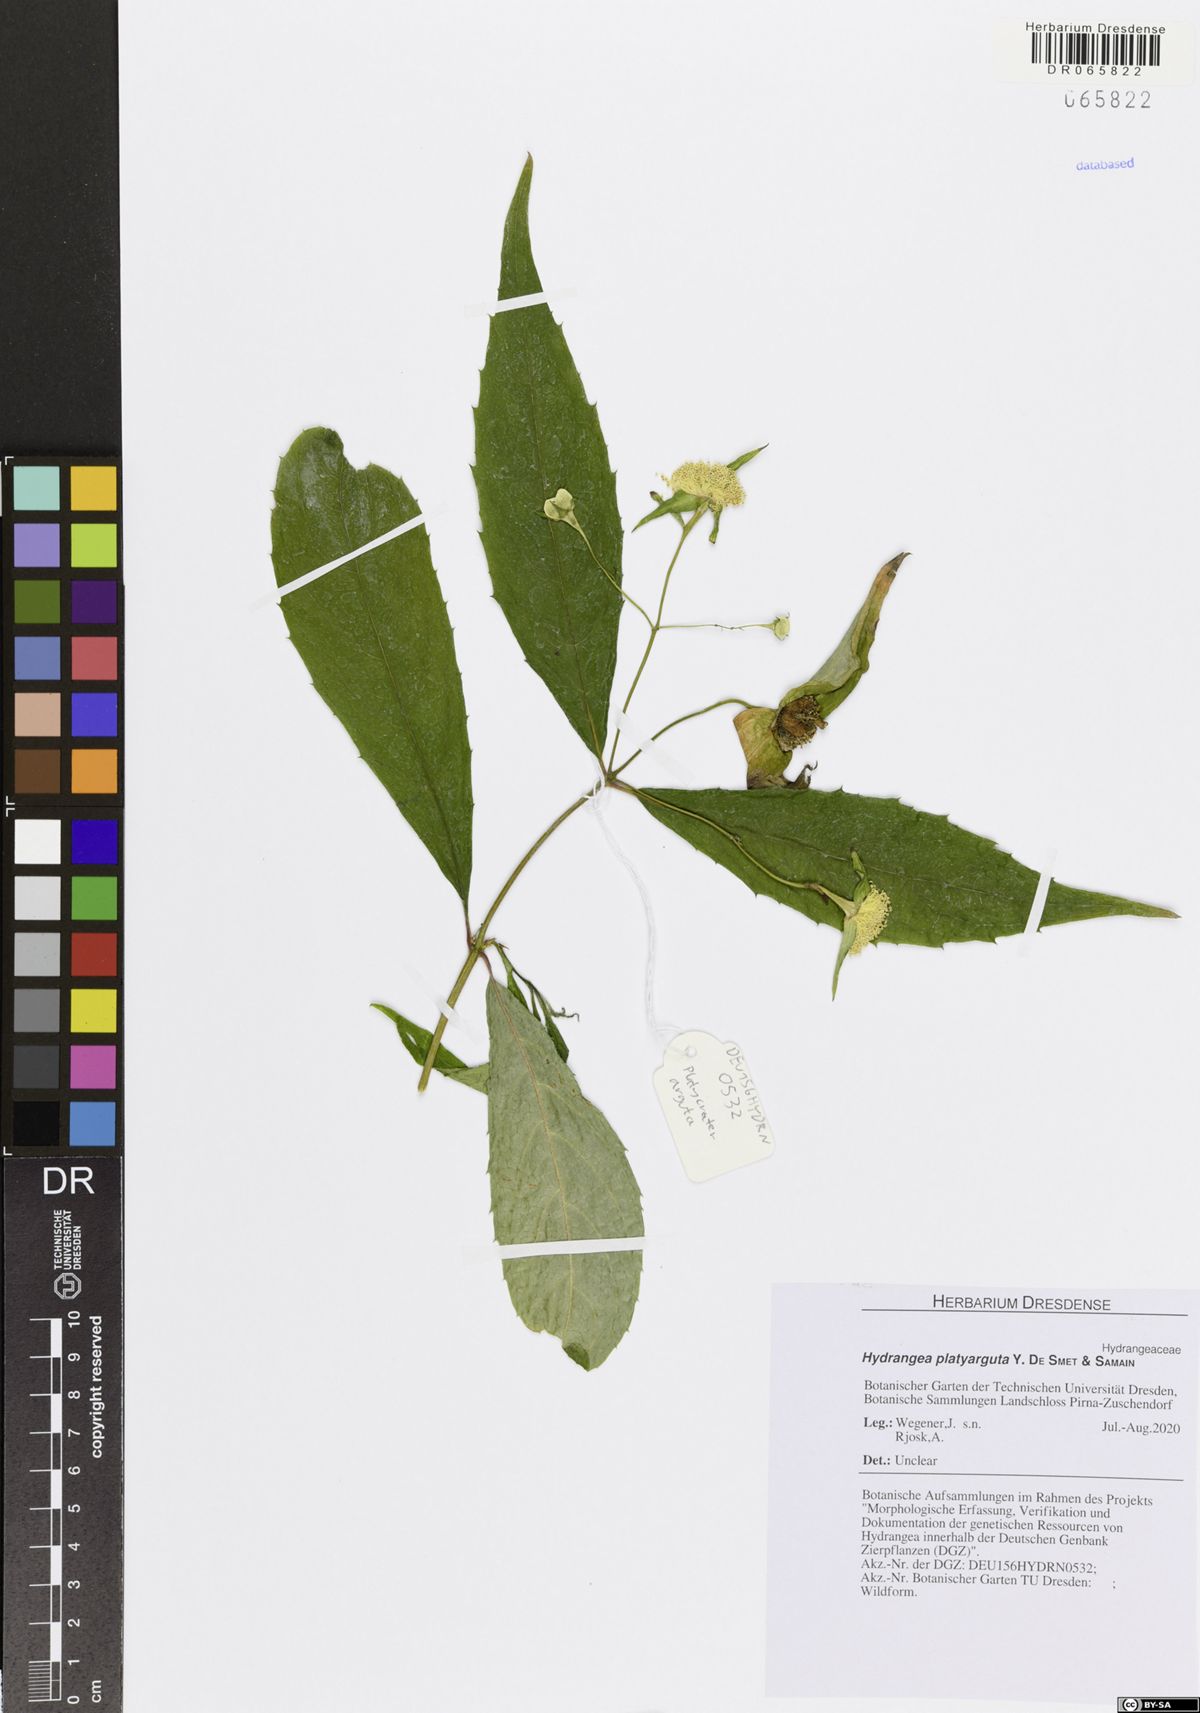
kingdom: Plantae
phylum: Tracheophyta
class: Magnoliopsida
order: Cornales
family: Hydrangeaceae
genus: Hydrangea
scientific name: Hydrangea platyarguta
